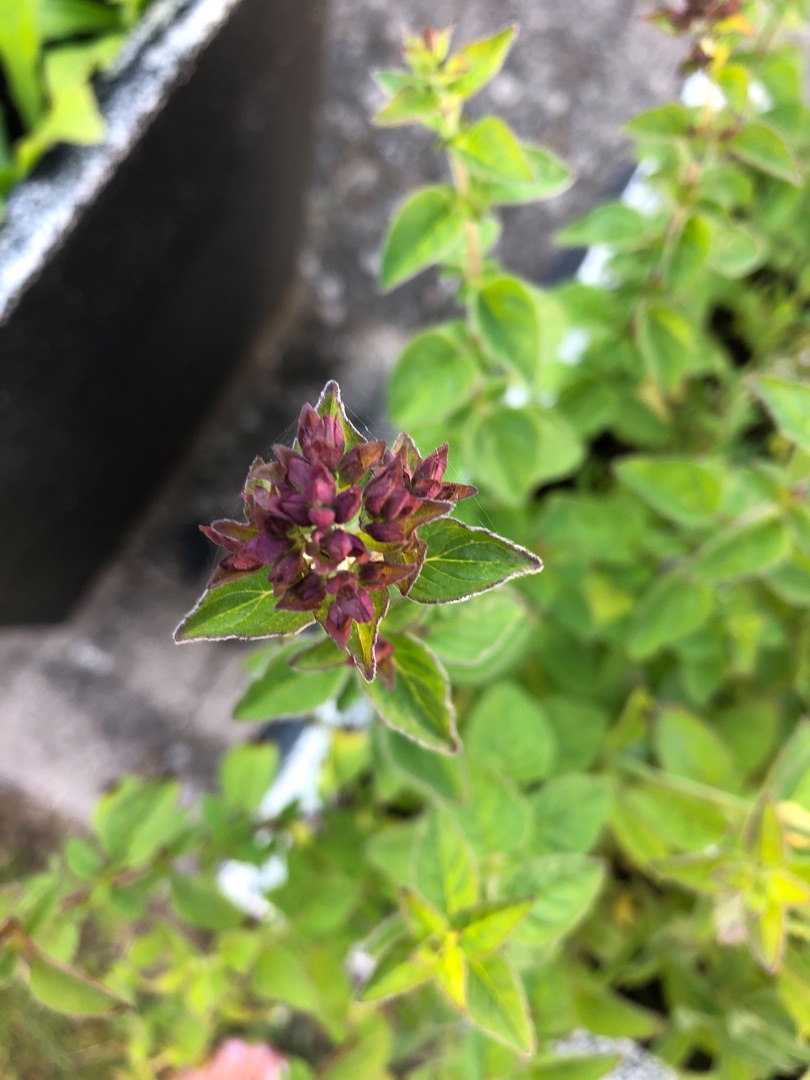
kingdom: Plantae
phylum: Tracheophyta
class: Magnoliopsida
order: Lamiales
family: Lamiaceae
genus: Origanum
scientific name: Origanum vulgare
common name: Merian
